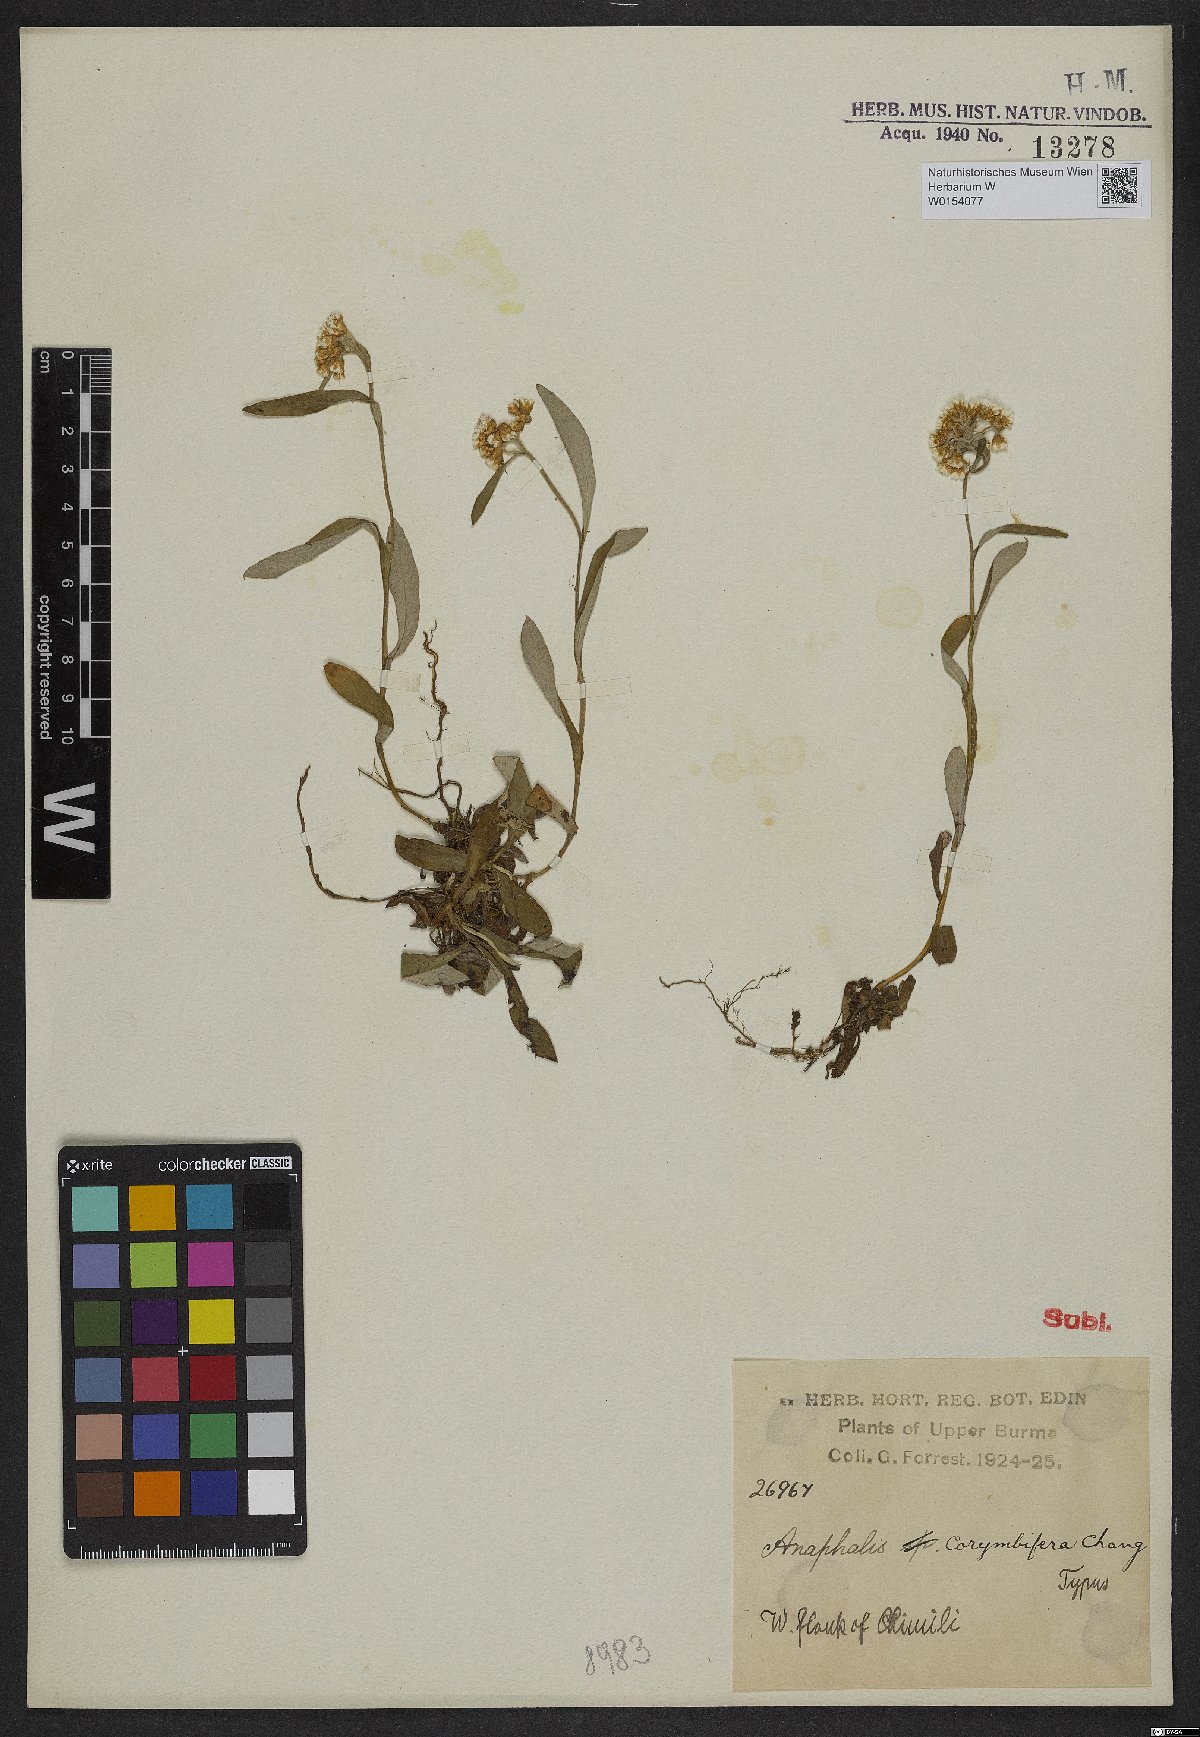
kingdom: Plantae
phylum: Tracheophyta
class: Magnoliopsida
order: Asterales
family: Asteraceae
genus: Anaphalis
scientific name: Anaphalis corymbifera
